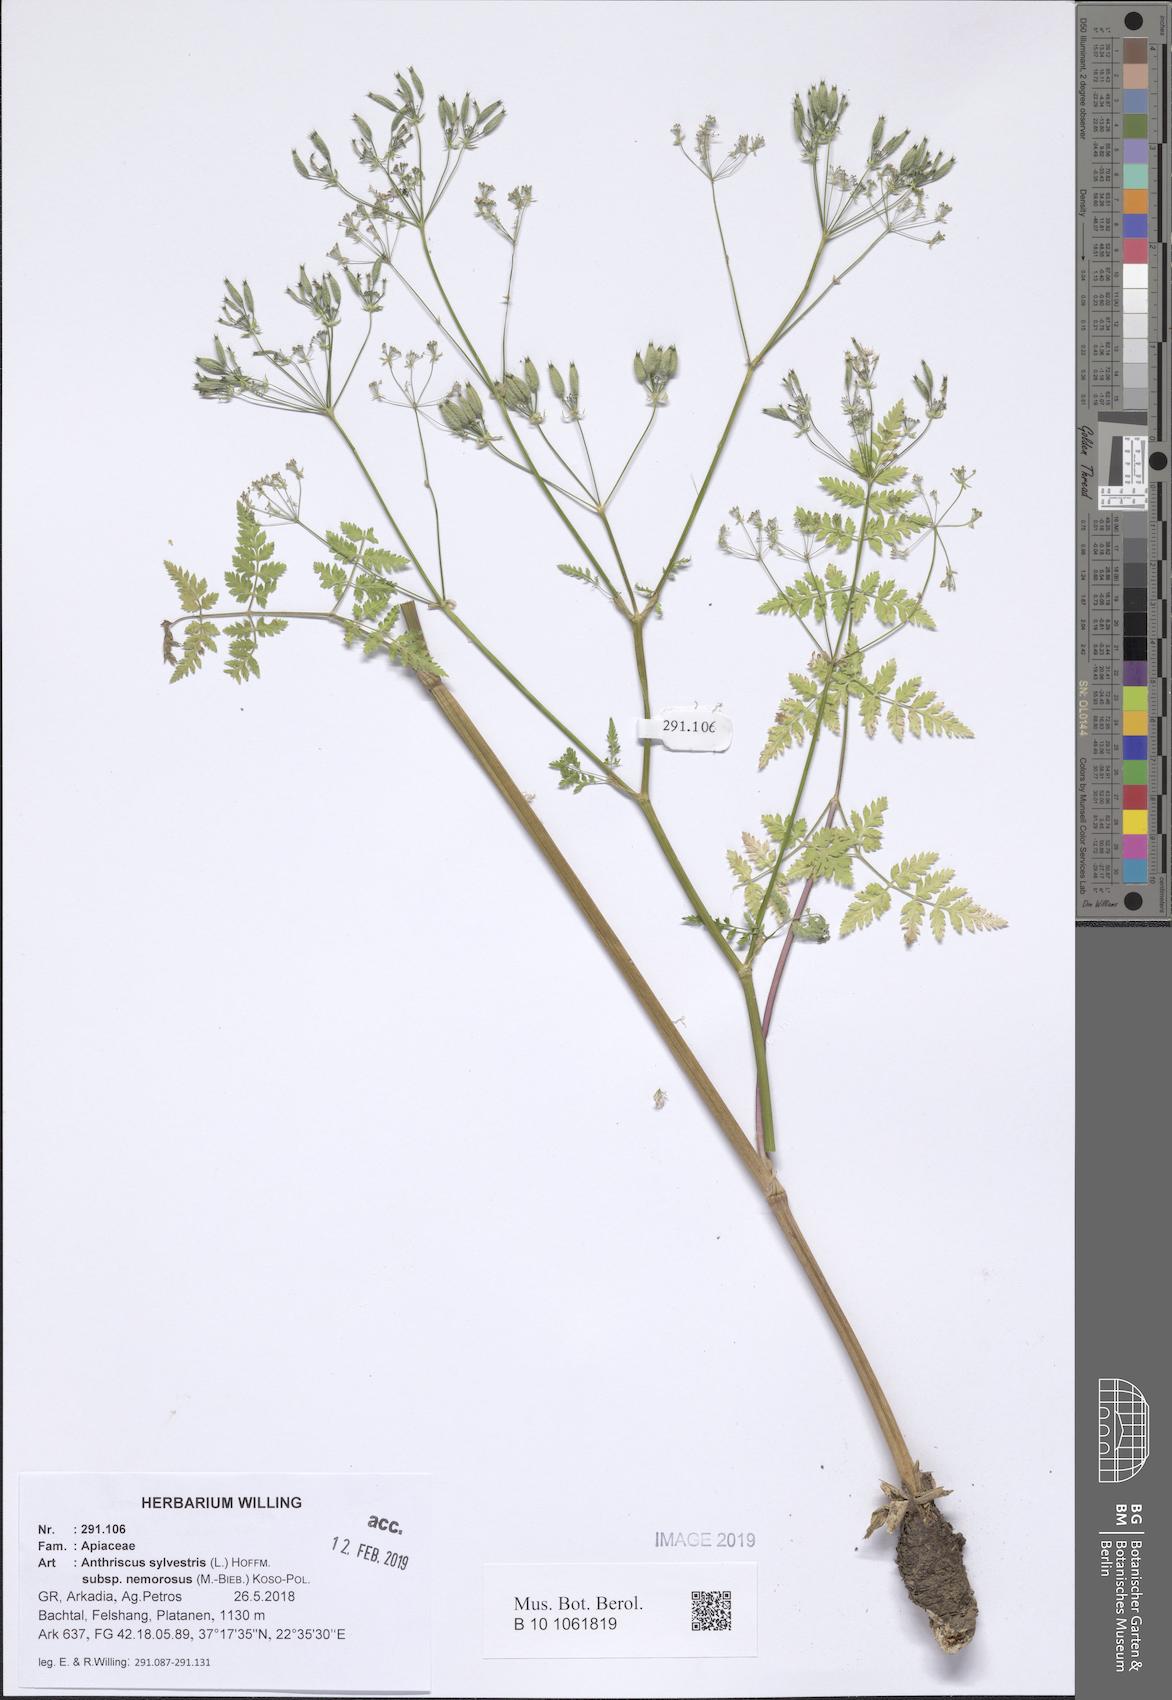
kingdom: Plantae
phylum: Tracheophyta
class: Magnoliopsida
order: Apiales
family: Apiaceae
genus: Anthriscus
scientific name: Anthriscus sylvestris
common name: Cow parsley
